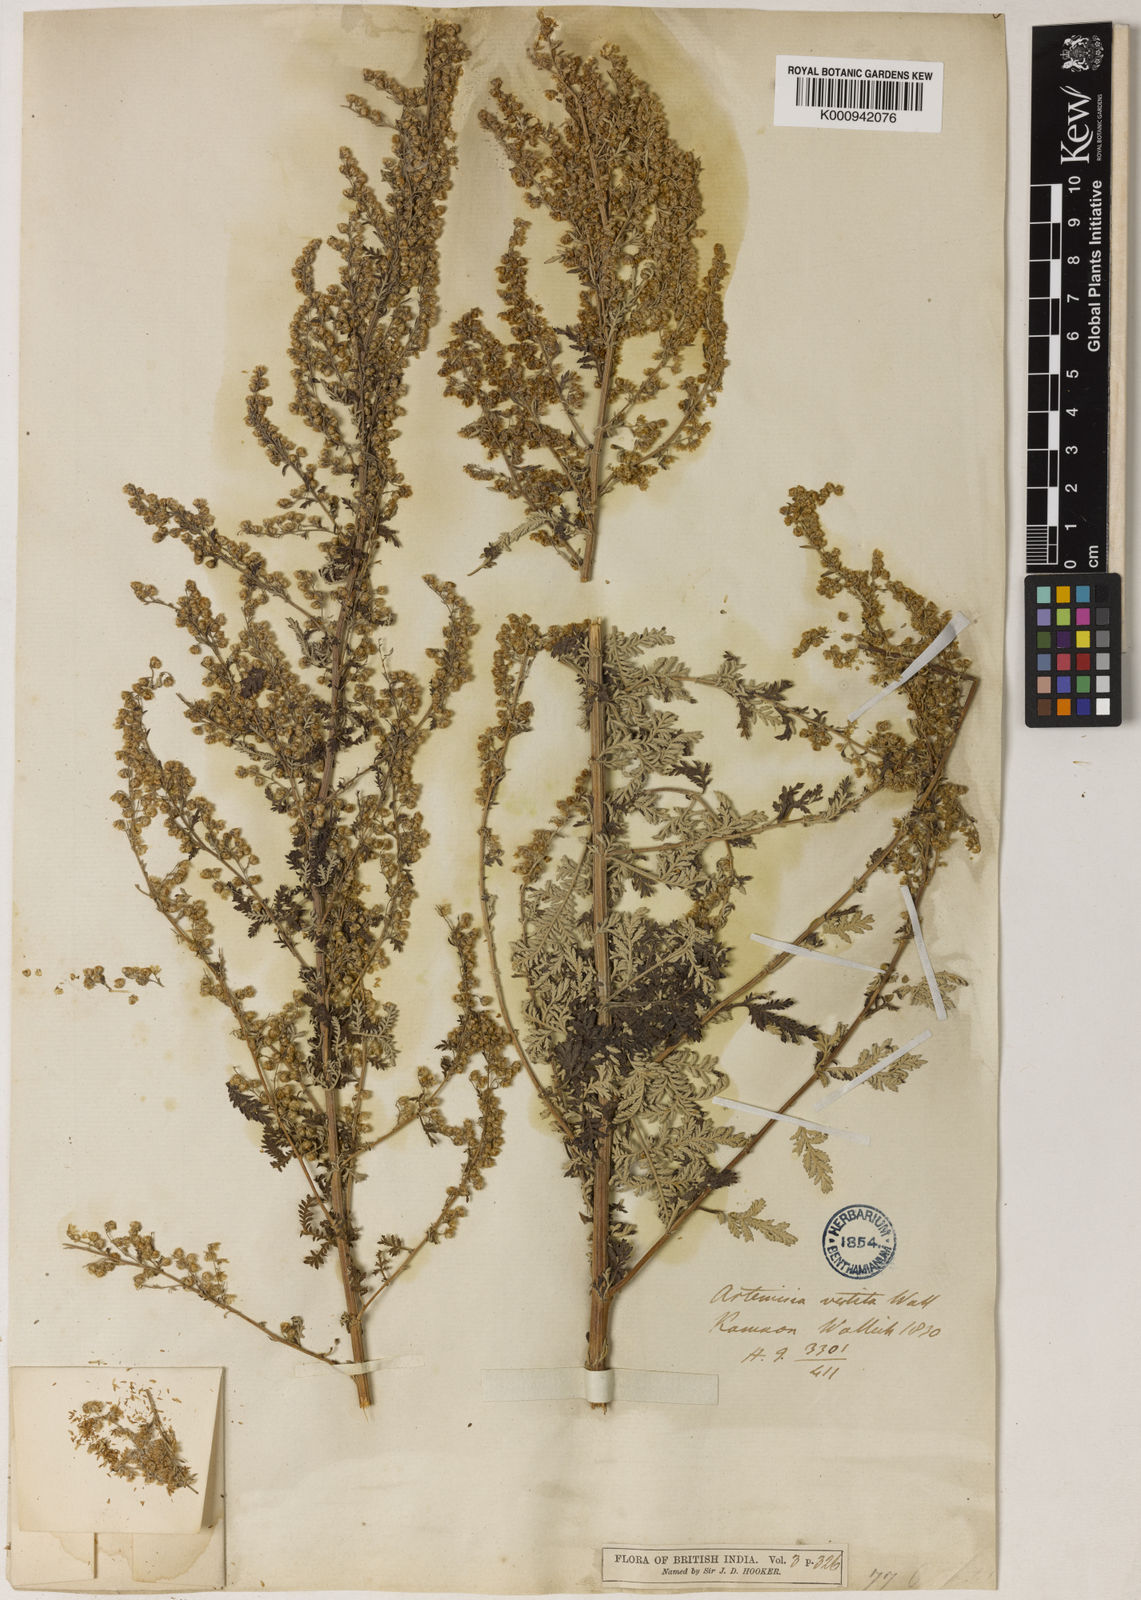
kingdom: Plantae
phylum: Tracheophyta
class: Magnoliopsida
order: Asterales
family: Asteraceae
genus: Artemisia
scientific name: Artemisia vestita
